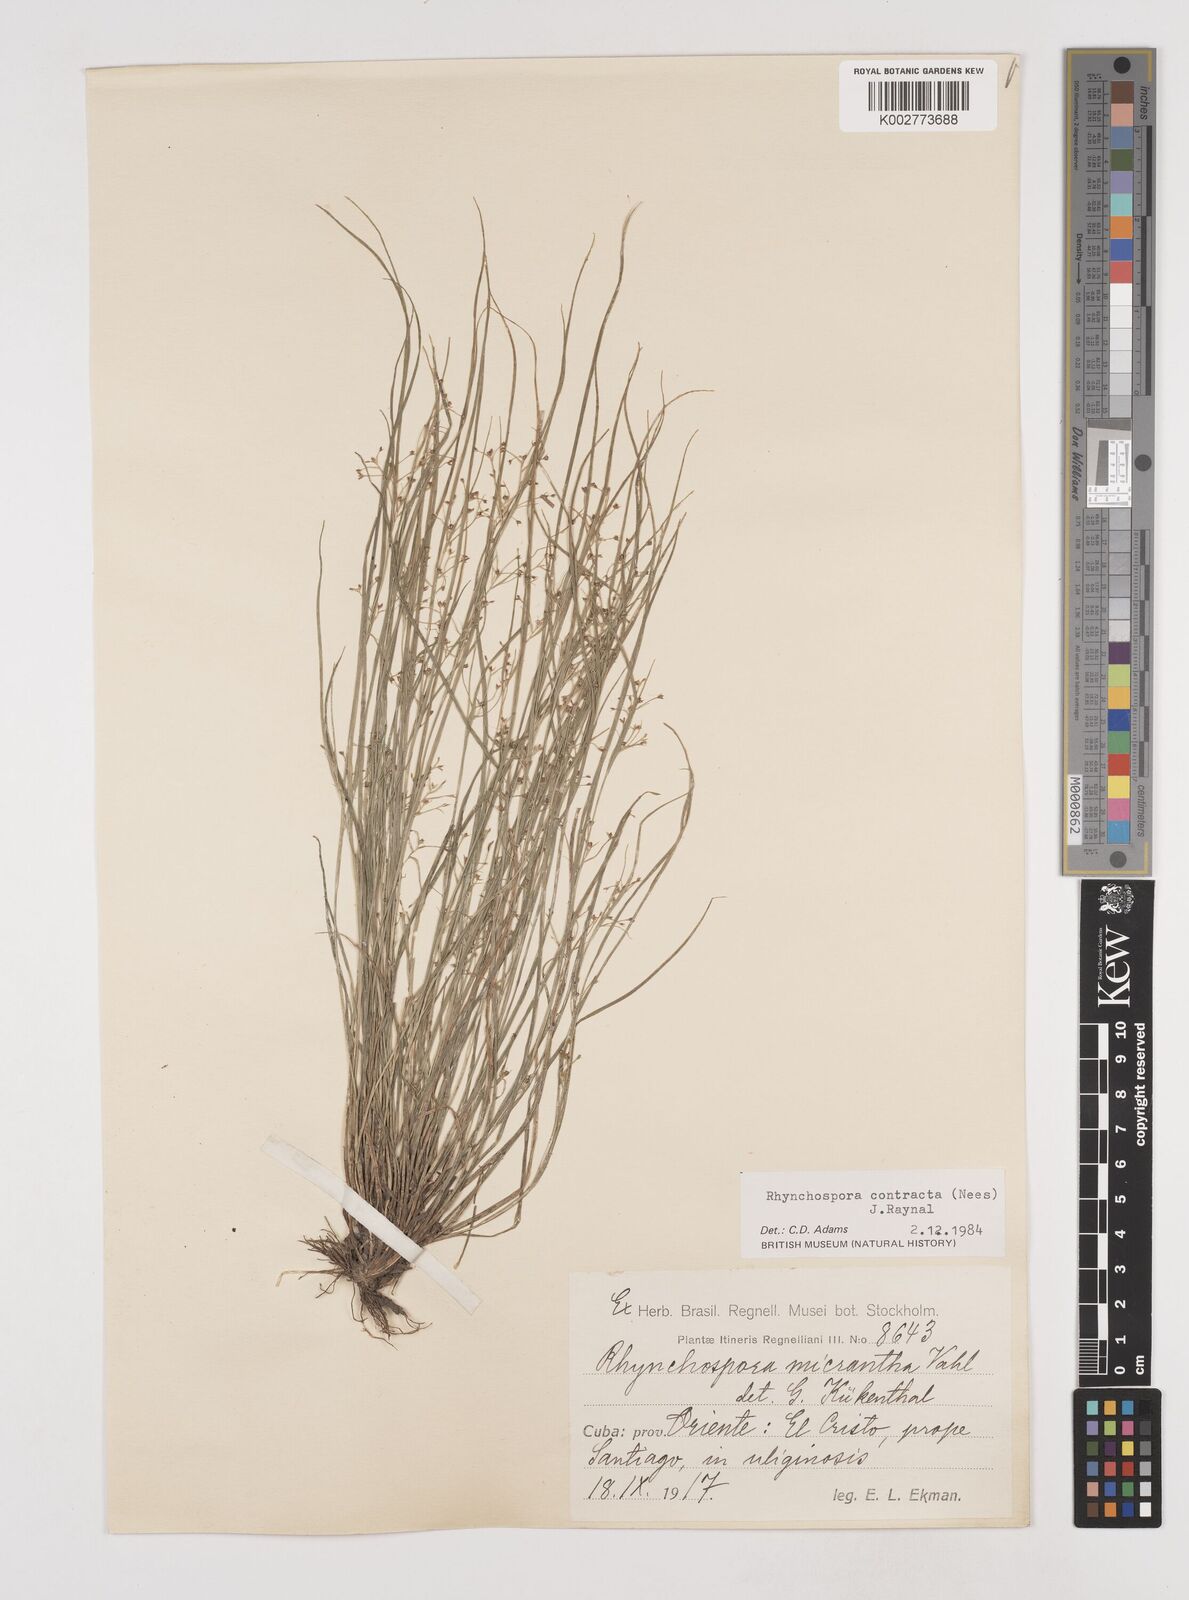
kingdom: Plantae
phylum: Tracheophyta
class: Liliopsida
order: Poales
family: Cyperaceae
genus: Rhynchospora
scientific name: Rhynchospora contracta
